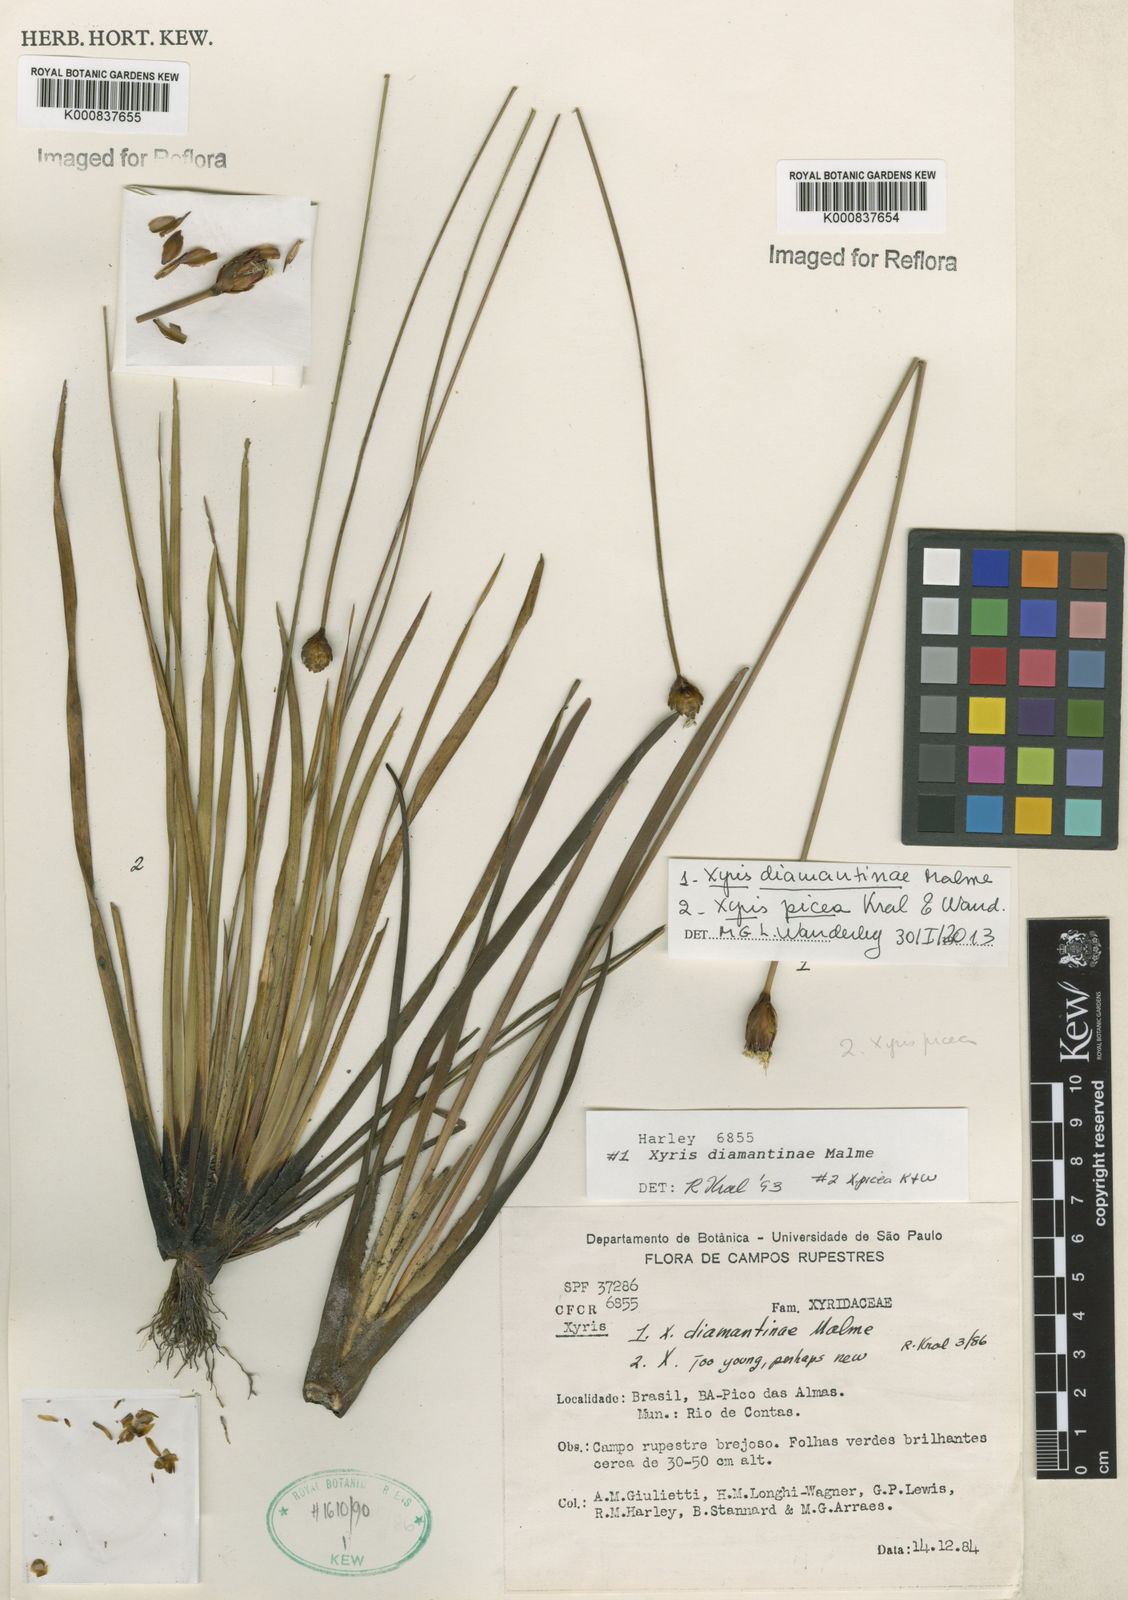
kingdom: Plantae
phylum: Tracheophyta
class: Liliopsida
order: Poales
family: Xyridaceae
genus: Xyris
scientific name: Xyris picea
